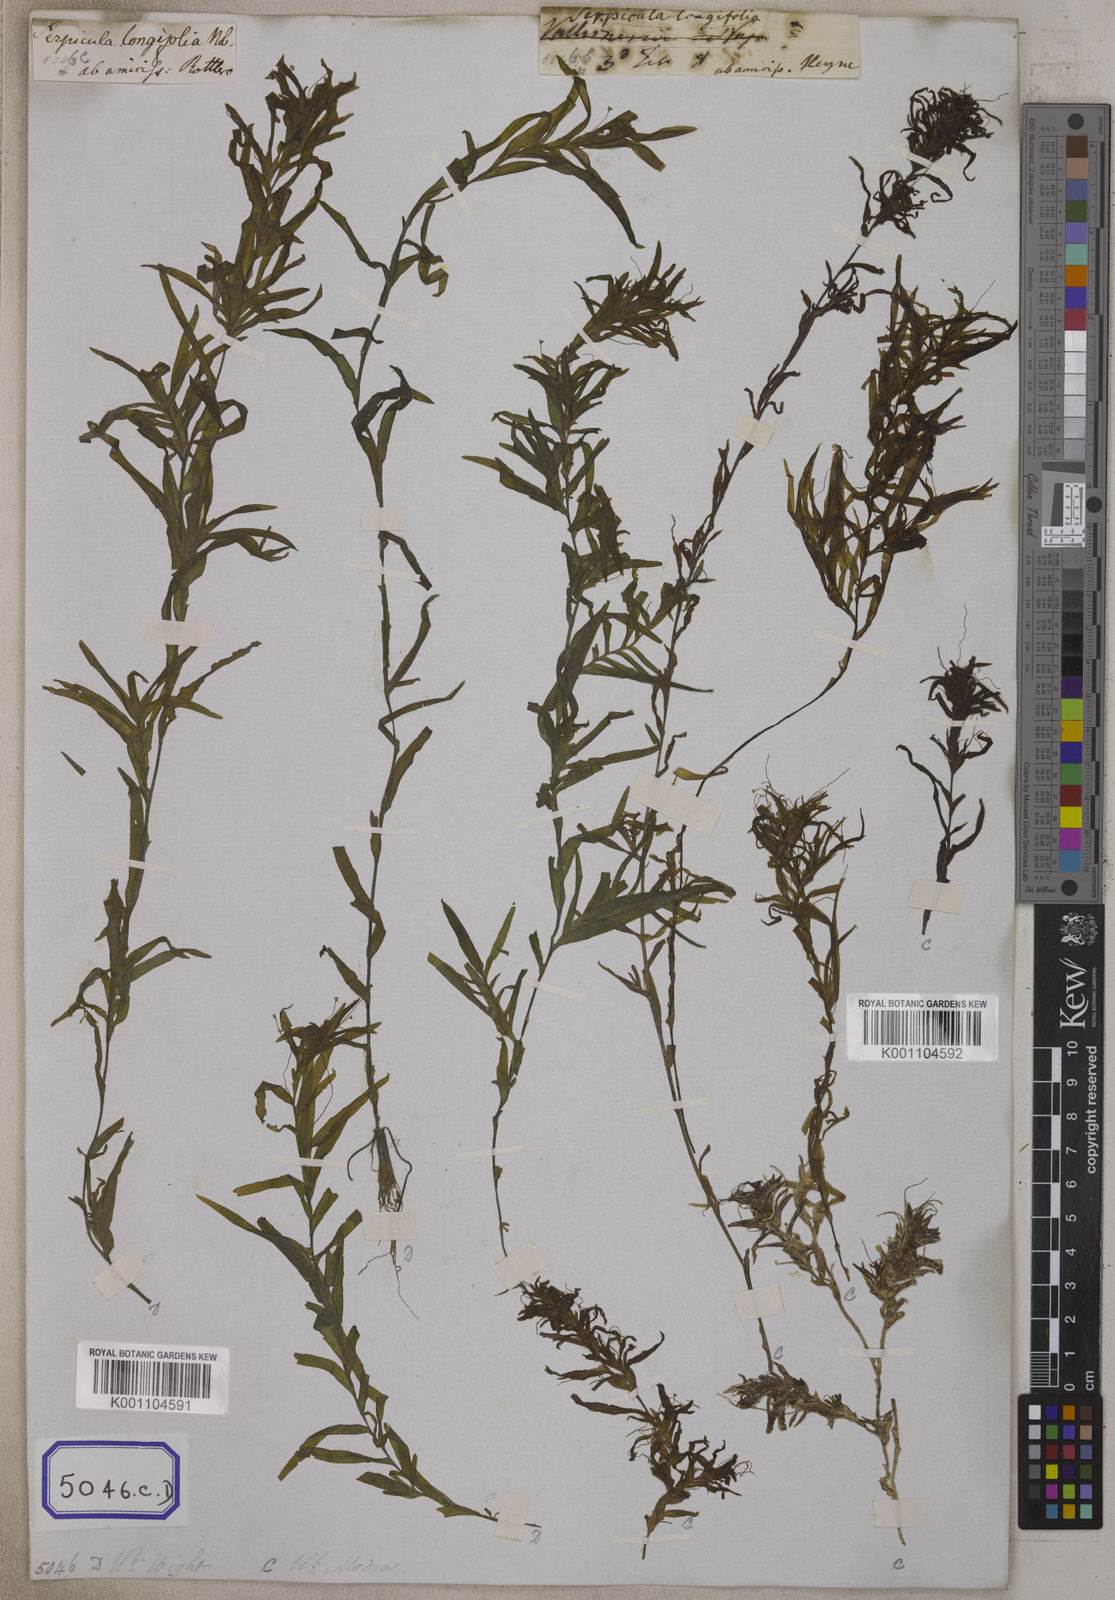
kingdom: Plantae
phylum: Tracheophyta
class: Liliopsida
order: Alismatales
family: Hydrocharitaceae
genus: Vallisneria
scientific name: Vallisneria
